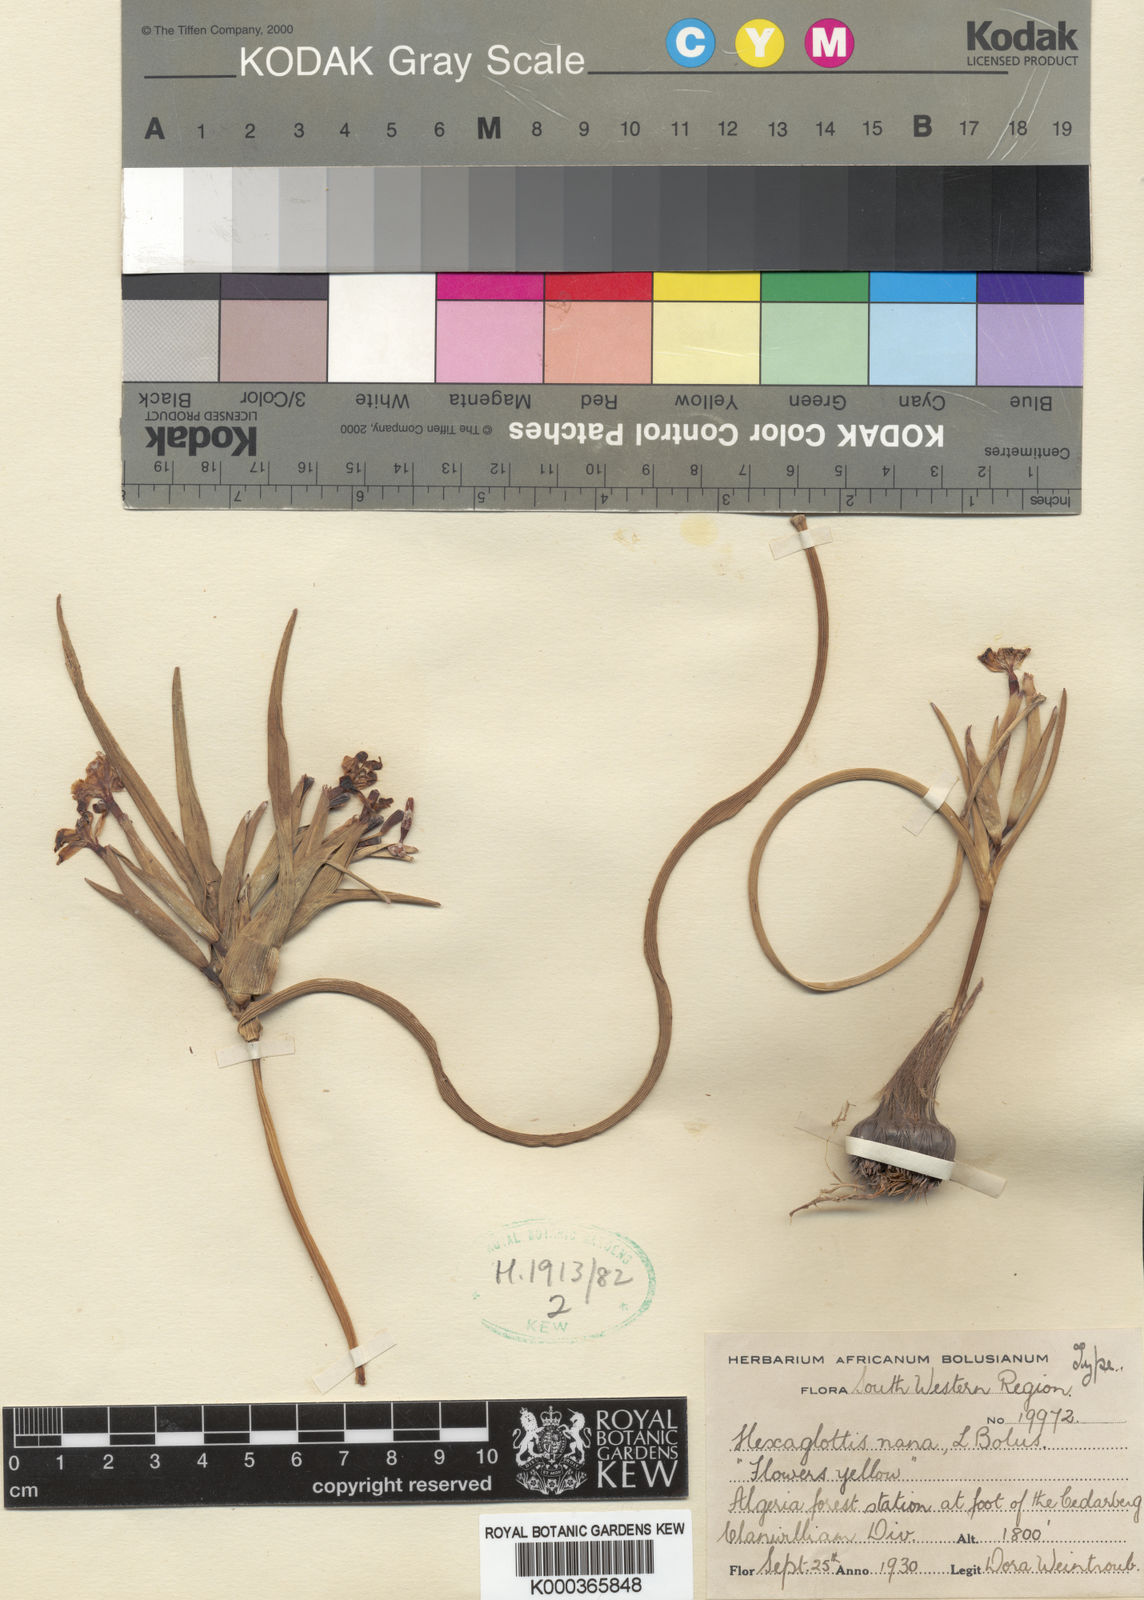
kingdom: Plantae
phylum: Tracheophyta
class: Liliopsida
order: Asparagales
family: Iridaceae
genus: Moraea
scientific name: Moraea nana
